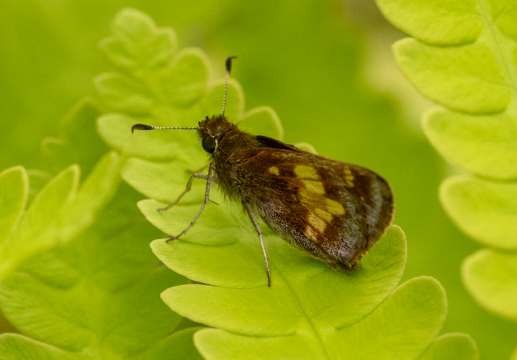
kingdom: Animalia
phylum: Arthropoda
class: Insecta
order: Lepidoptera
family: Hesperiidae
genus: Lon
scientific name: Lon hobomok
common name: Hobomok Skipper
